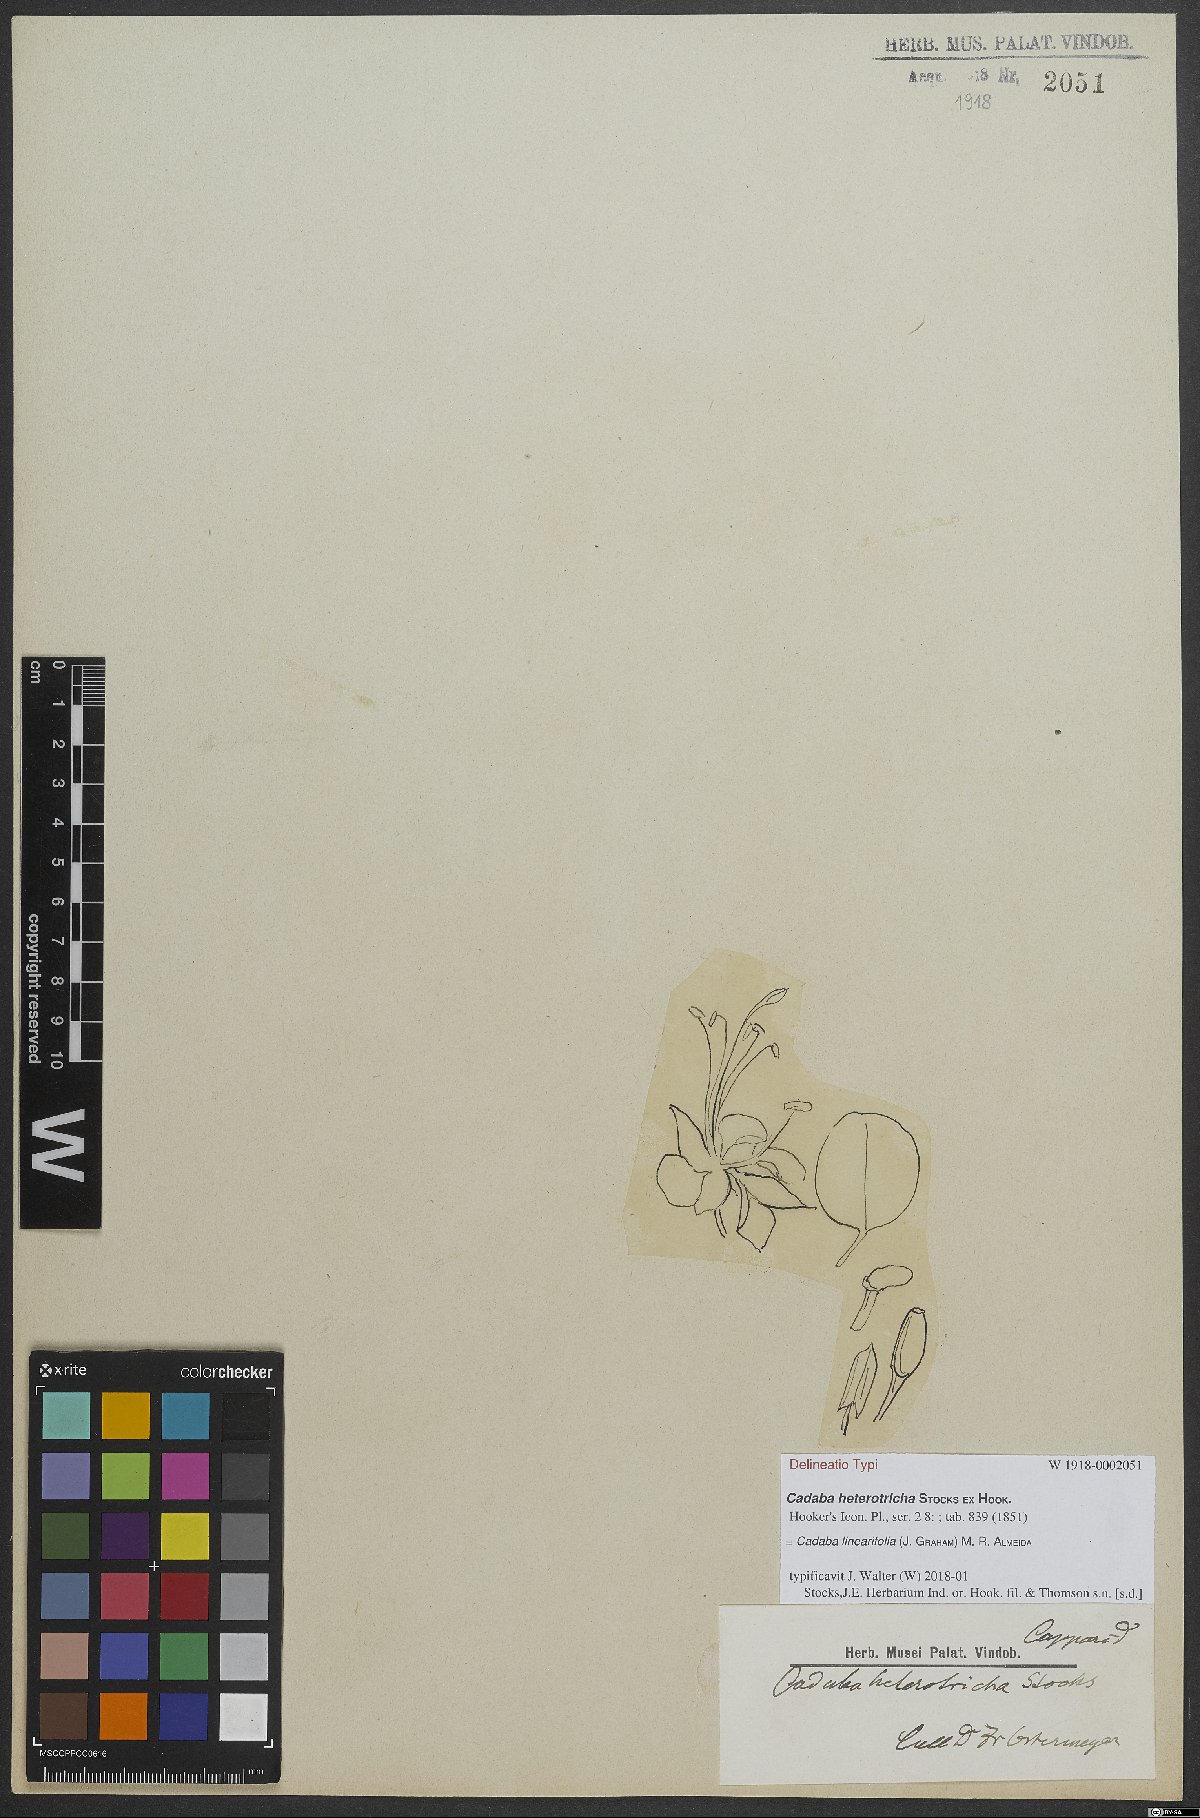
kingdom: Plantae
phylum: Tracheophyta
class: Magnoliopsida
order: Brassicales
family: Capparaceae
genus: Cadaba
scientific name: Cadaba linearifolia
